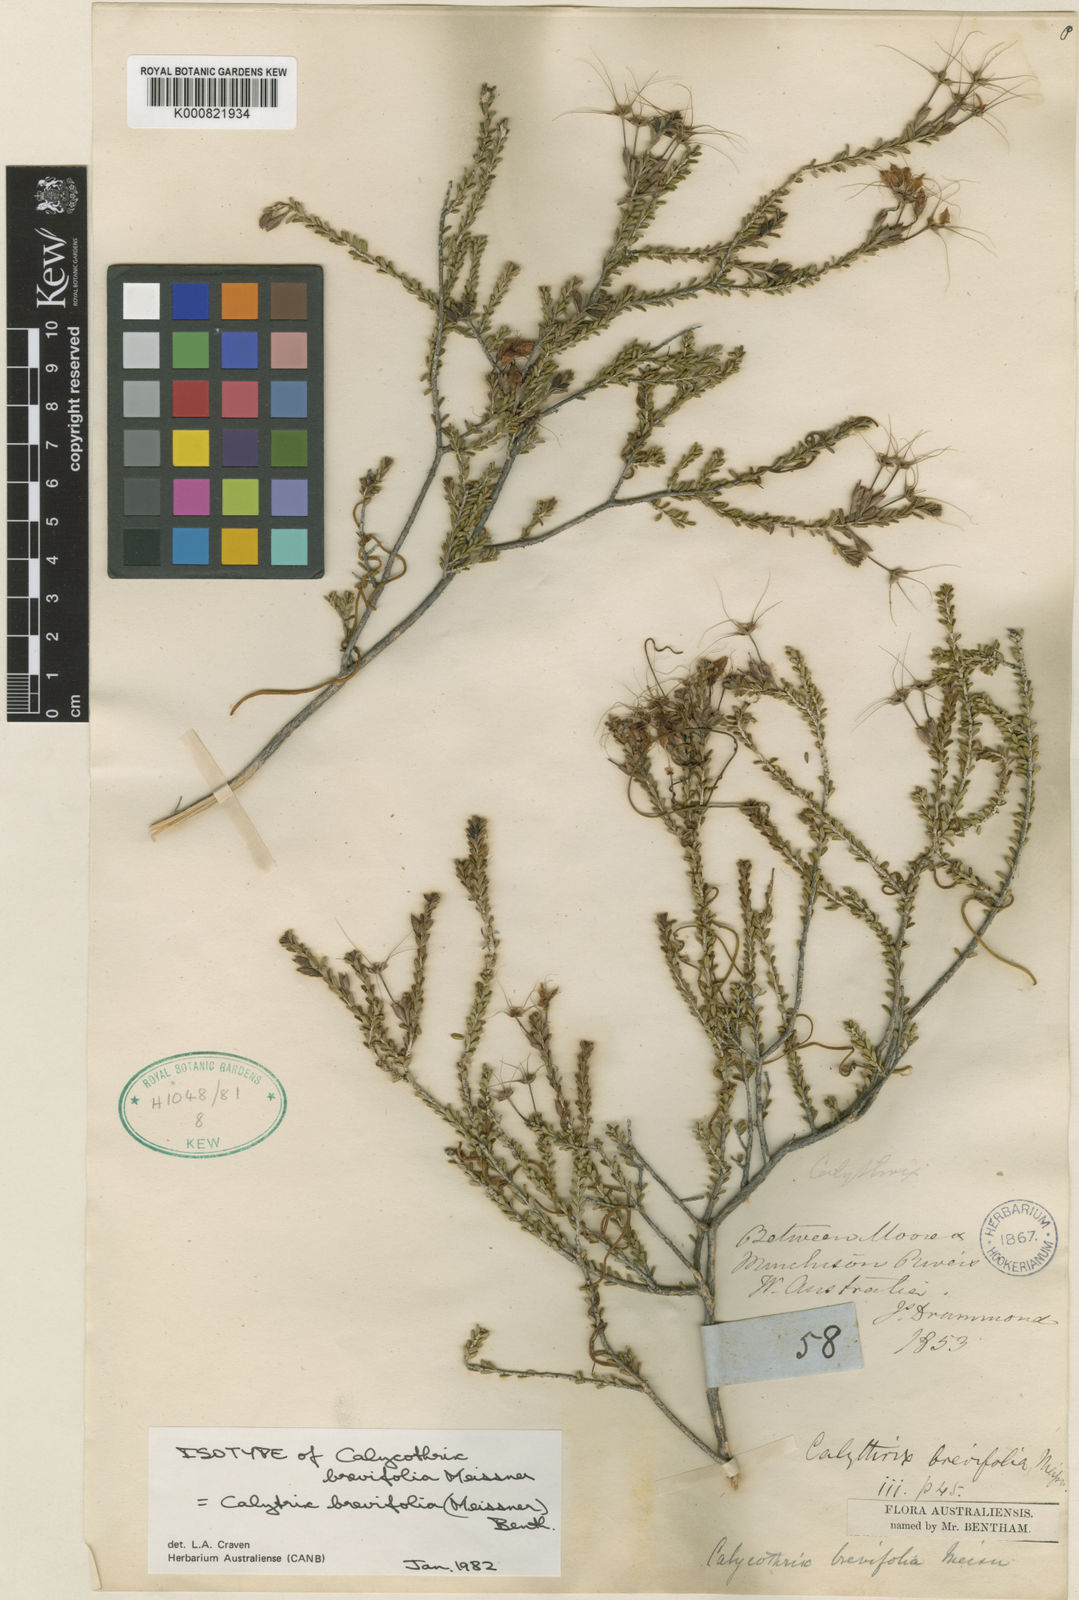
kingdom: Plantae
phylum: Tracheophyta
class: Magnoliopsida
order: Myrtales
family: Myrtaceae
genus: Calytrix
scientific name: Calytrix brevifolia
